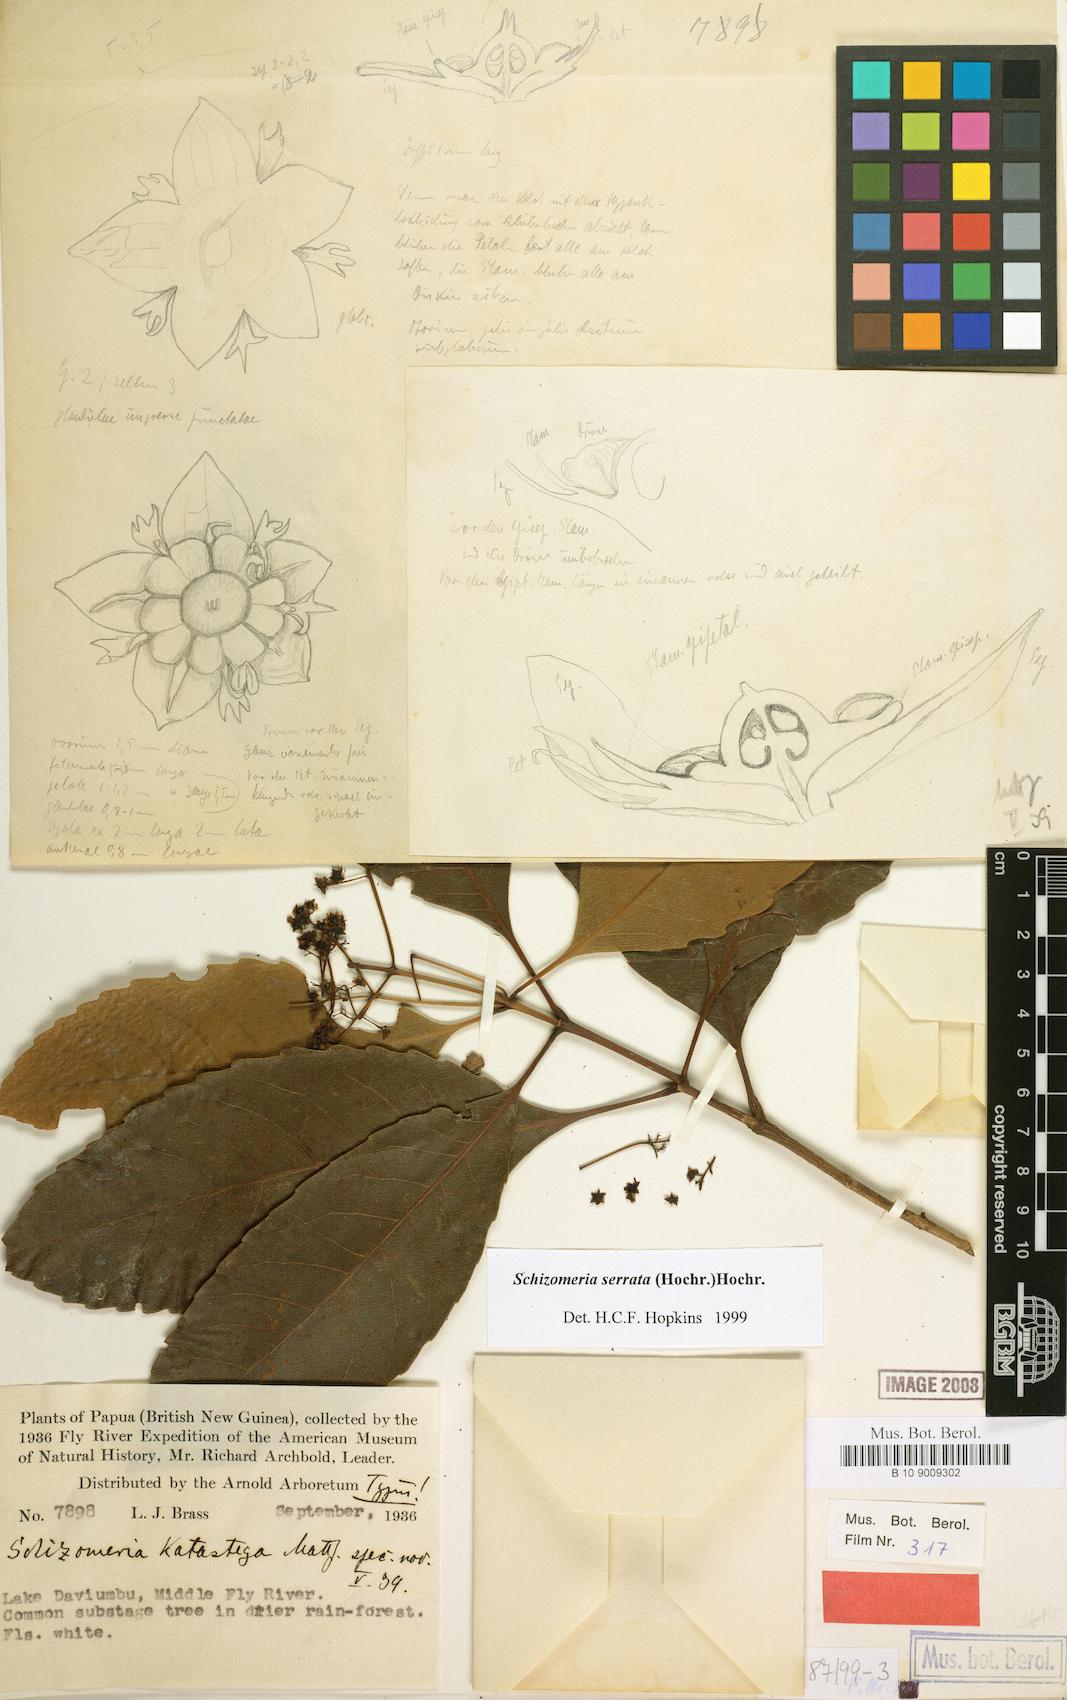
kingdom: Plantae
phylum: Tracheophyta
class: Magnoliopsida
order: Oxalidales
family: Cunoniaceae
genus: Schizomeria
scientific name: Schizomeria serrata
